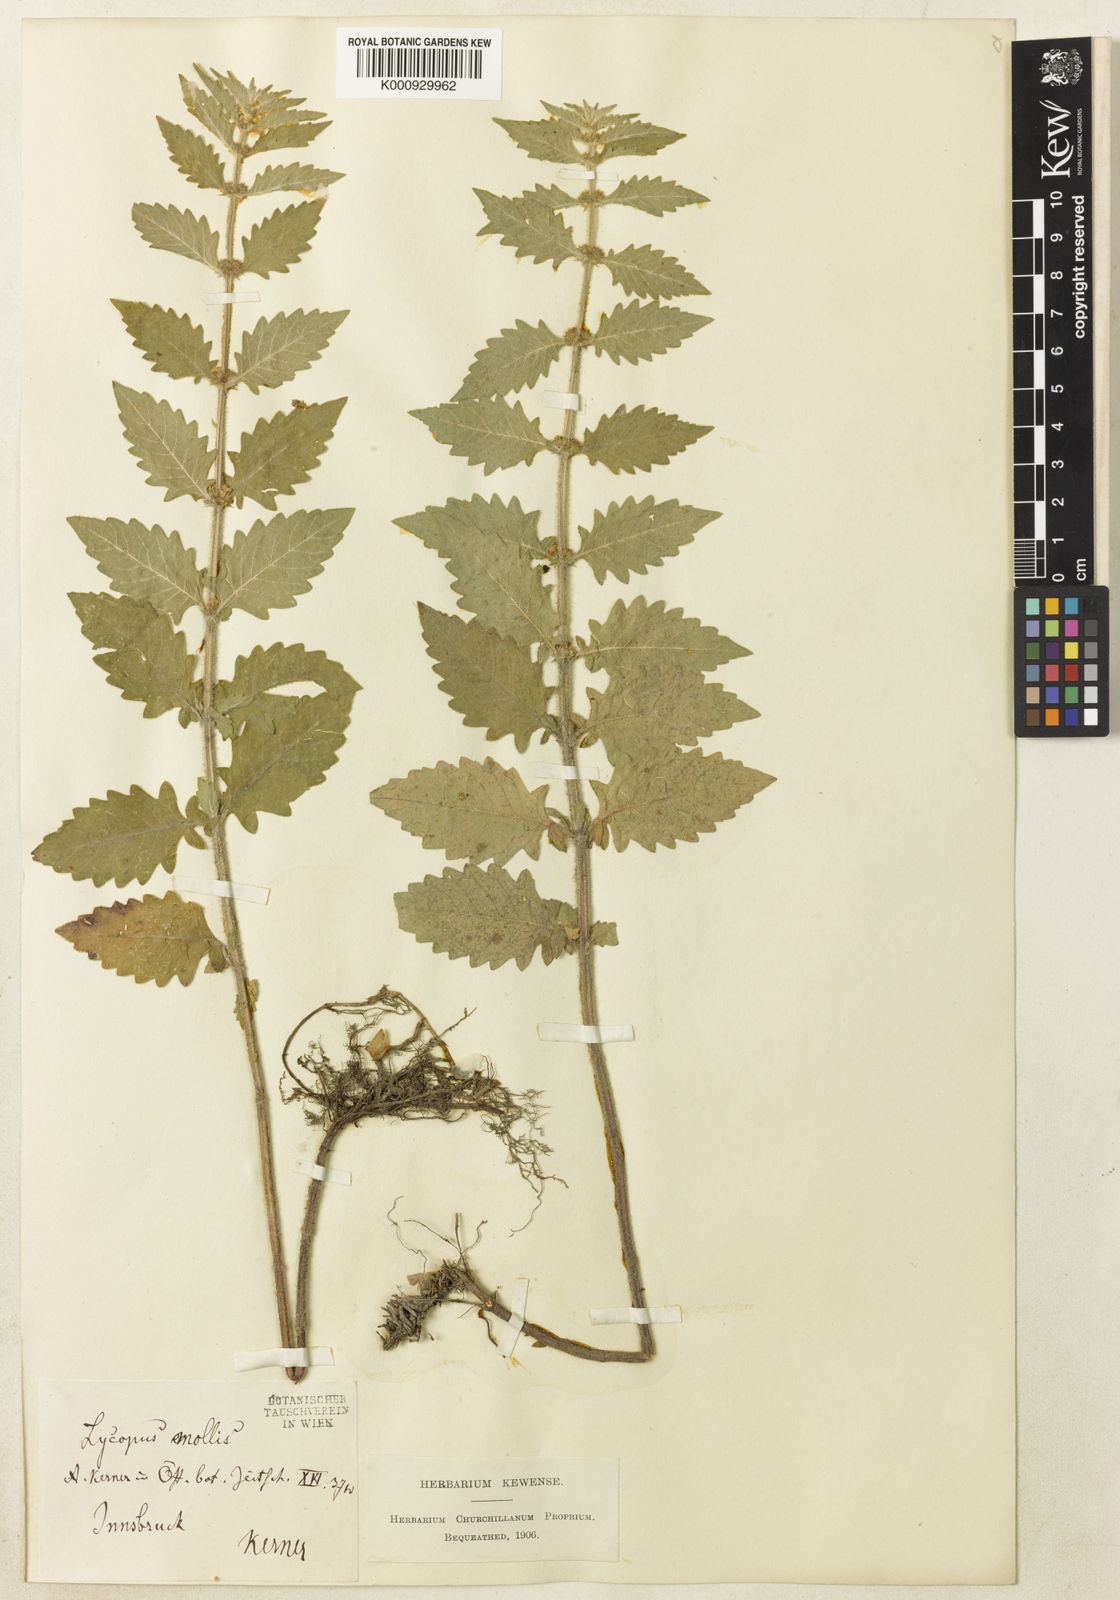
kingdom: Plantae
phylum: Tracheophyta
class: Magnoliopsida
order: Lamiales
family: Lamiaceae
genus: Lycopus
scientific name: Lycopus europaeus
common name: European bugleweed
